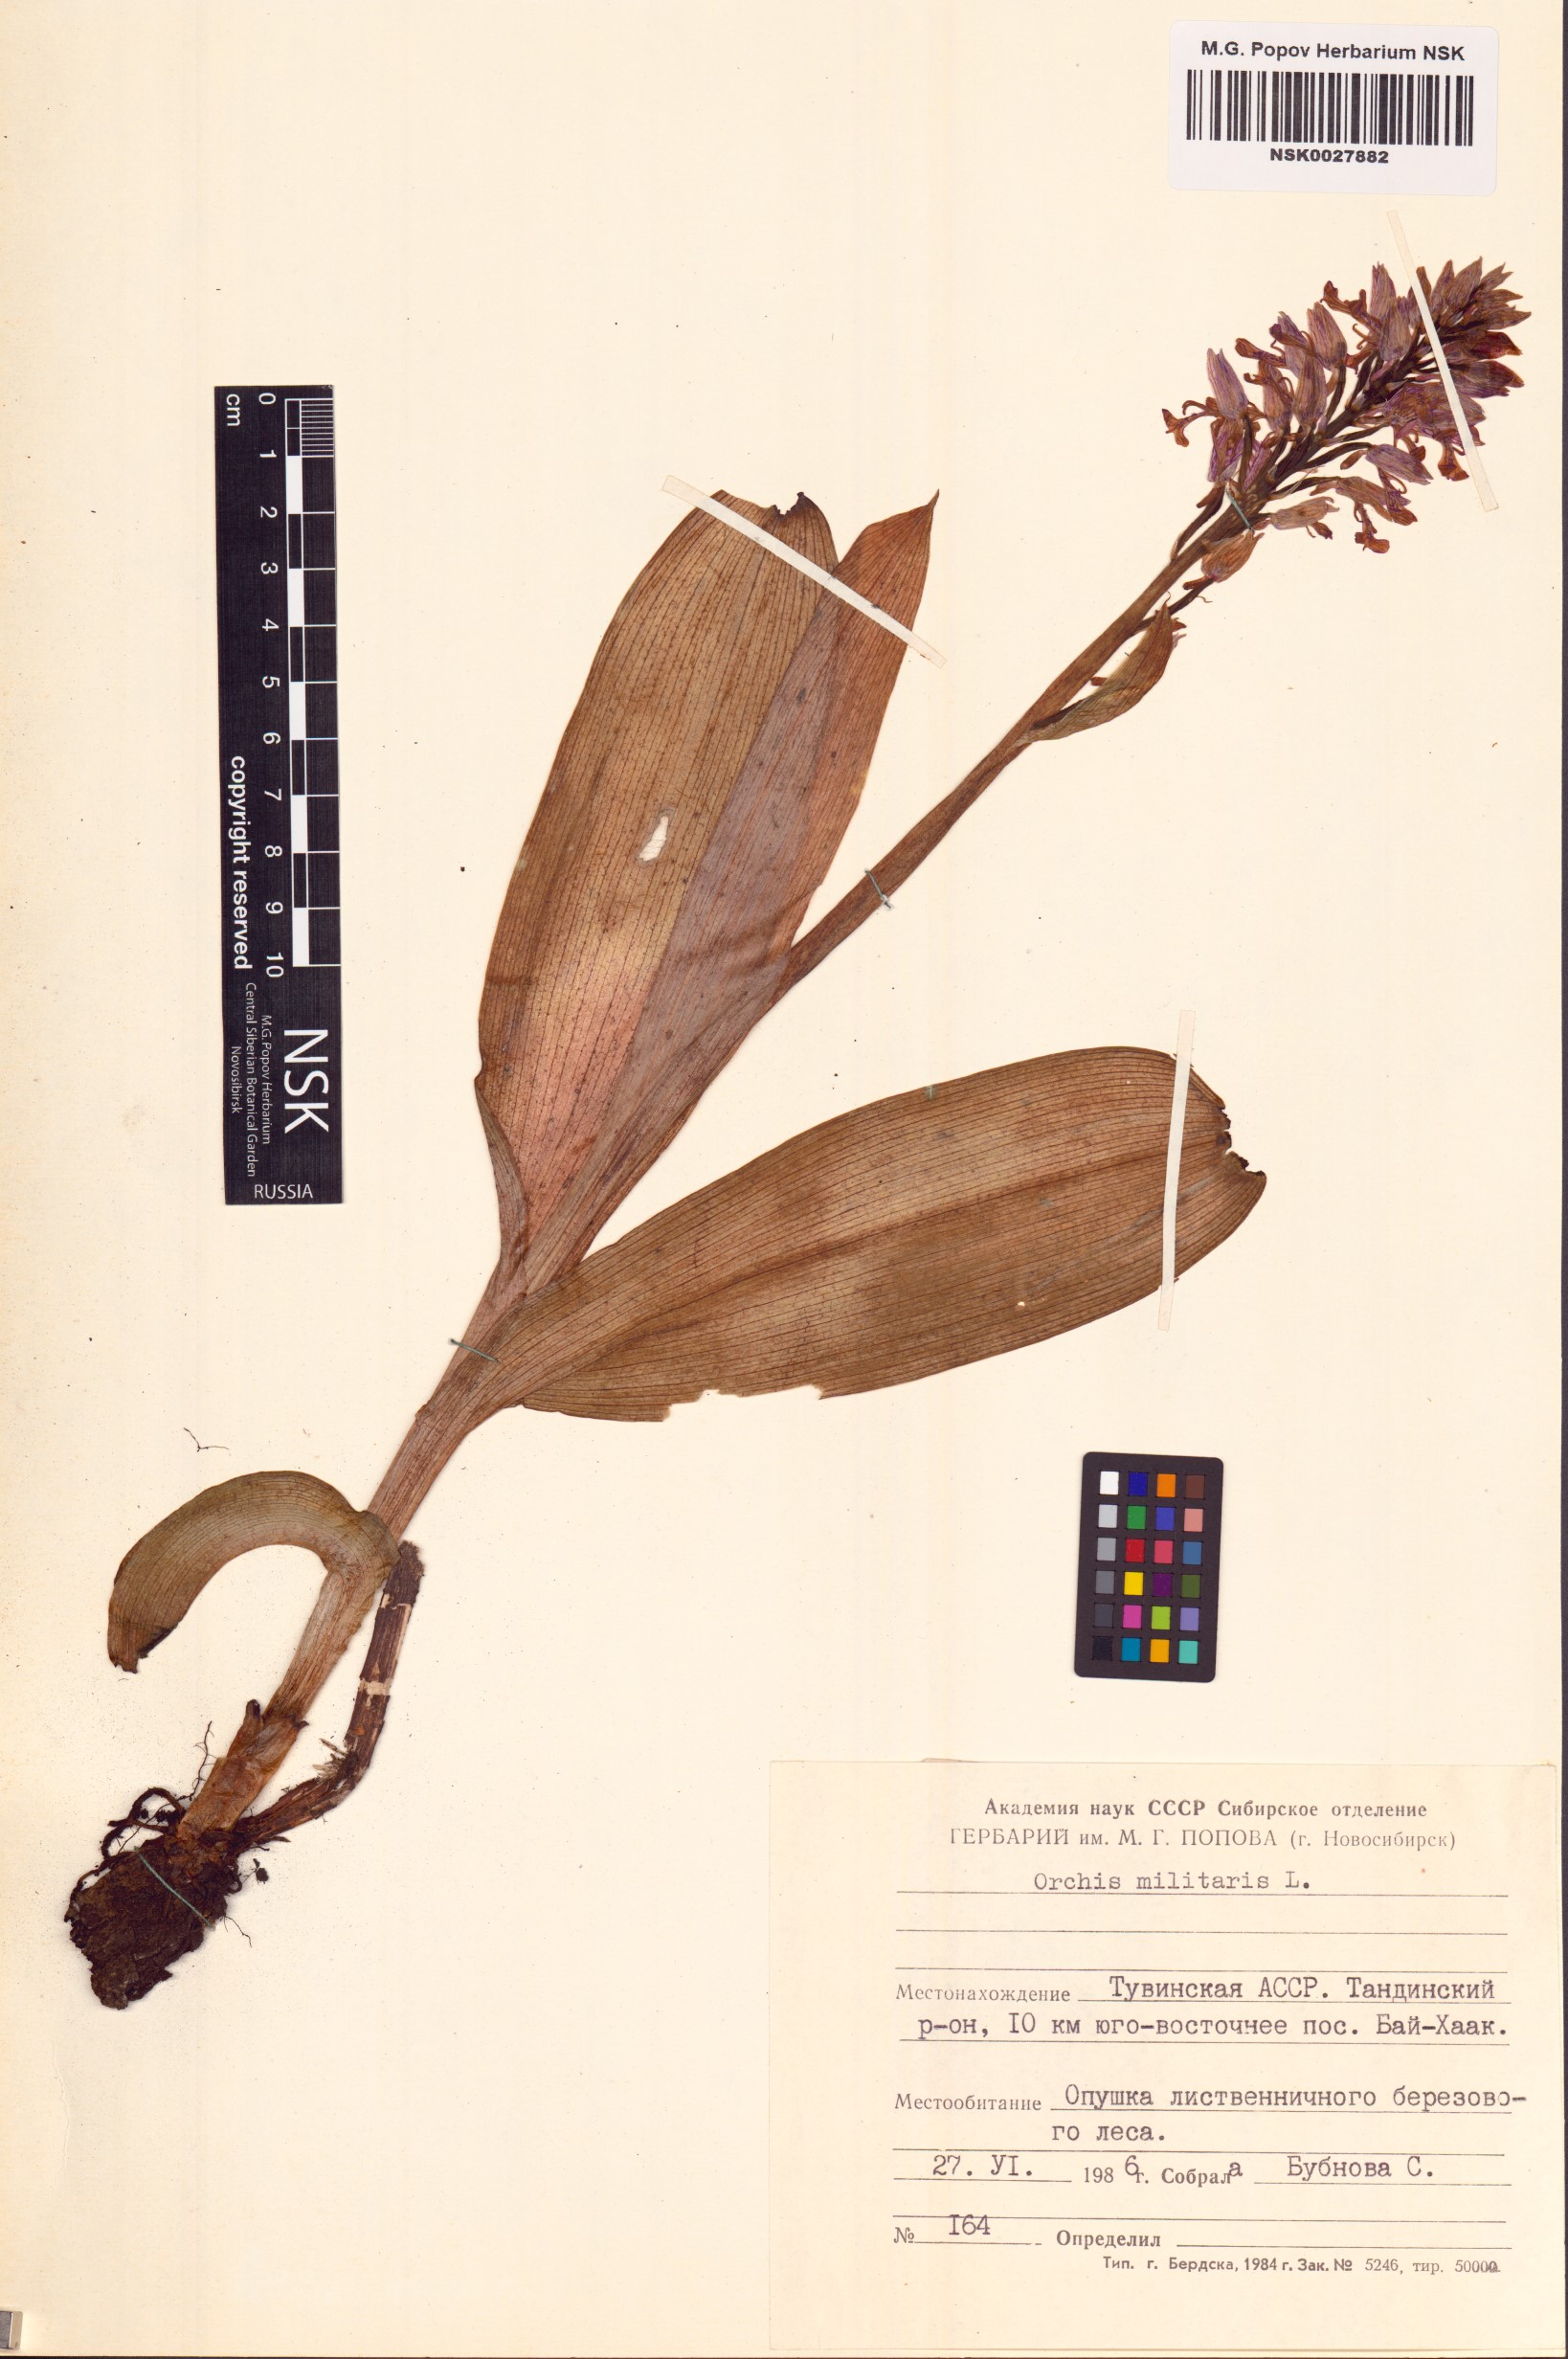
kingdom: Plantae
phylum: Tracheophyta
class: Liliopsida
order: Asparagales
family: Orchidaceae
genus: Orchis
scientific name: Orchis militaris
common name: Military orchid
